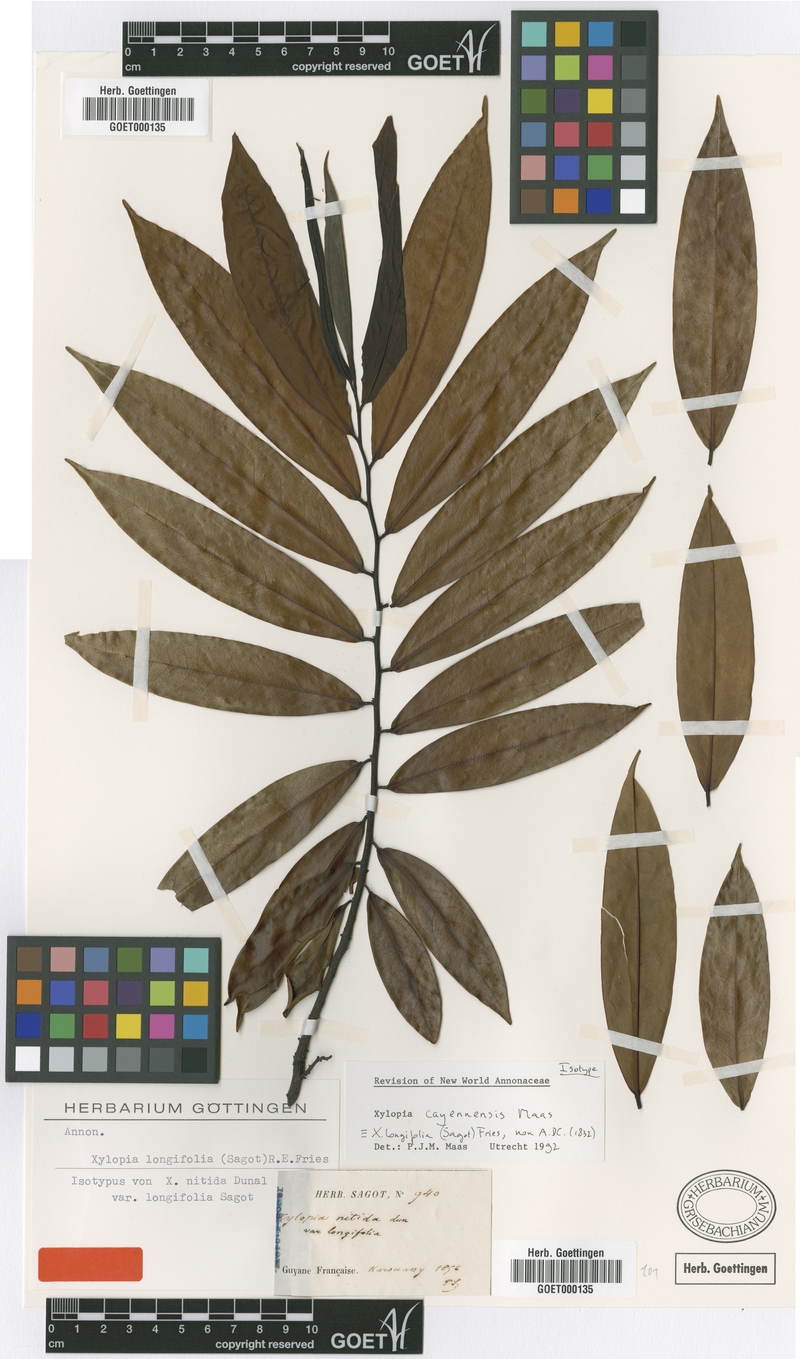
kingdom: Plantae
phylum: Tracheophyta
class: Magnoliopsida
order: Magnoliales
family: Annonaceae
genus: Xylopia
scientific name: Xylopia cayennensis
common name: Black maho
